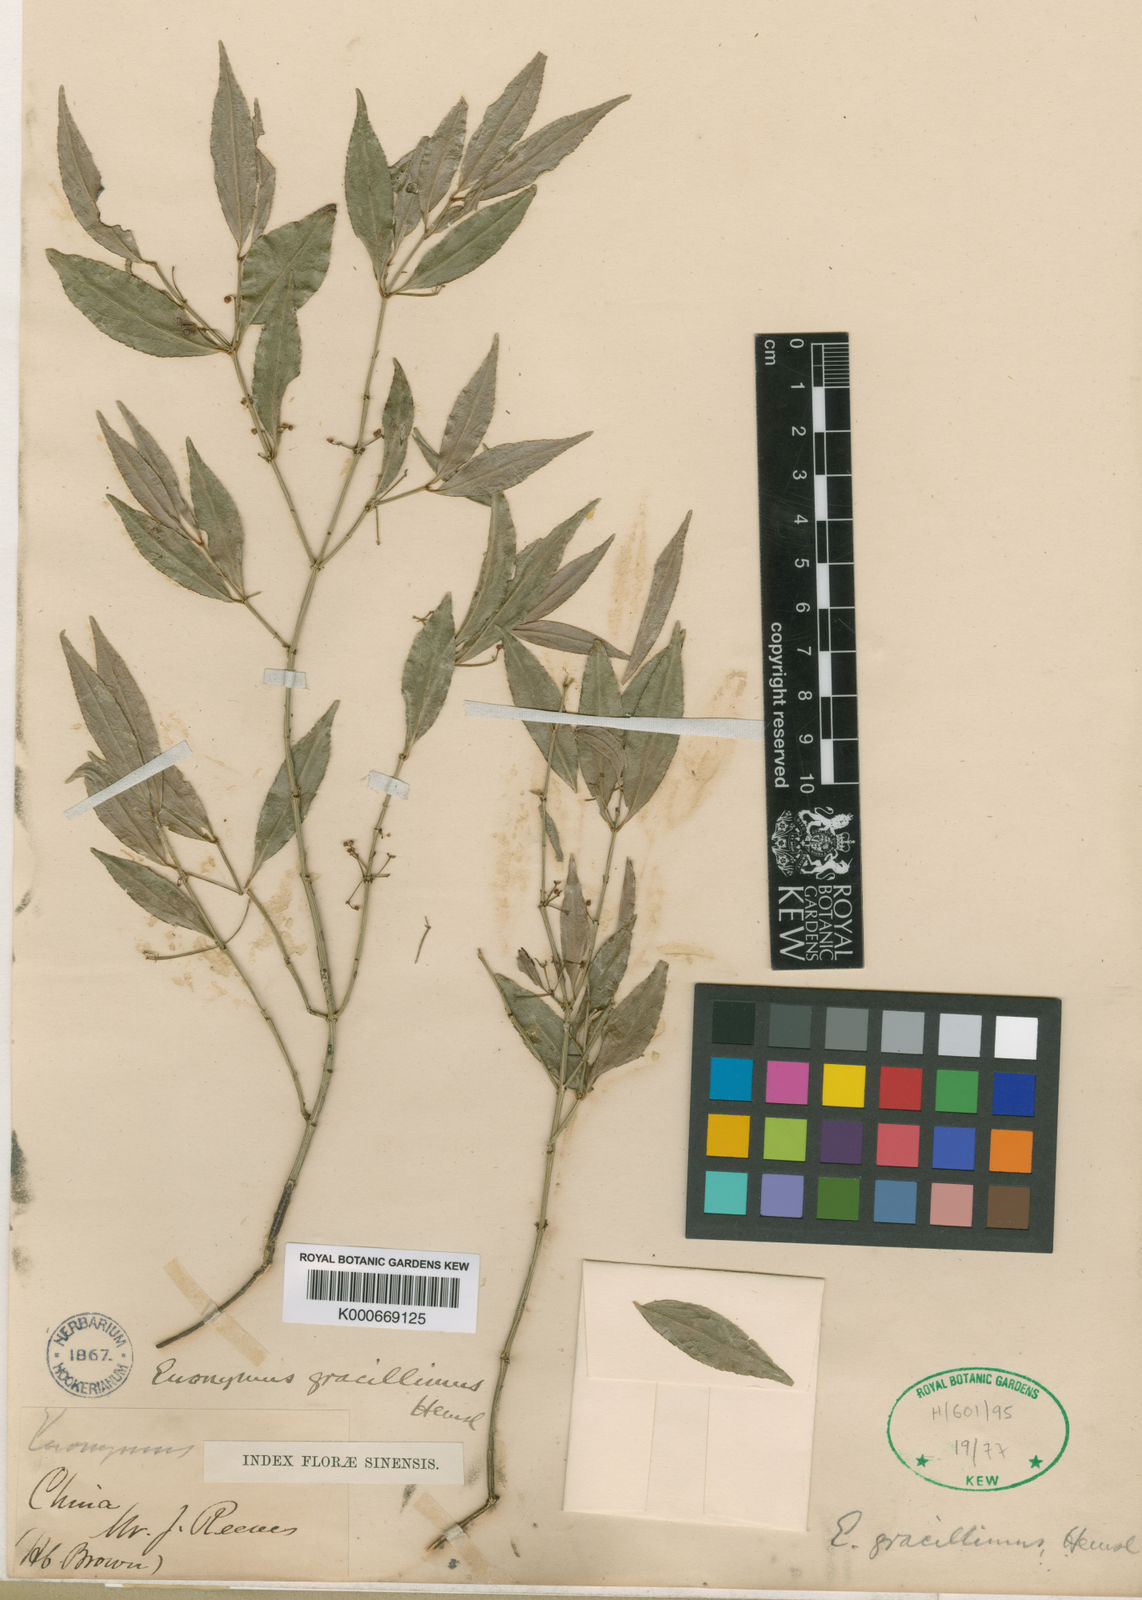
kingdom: Plantae
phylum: Tracheophyta
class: Magnoliopsida
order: Celastrales
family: Celastraceae
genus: Euonymus
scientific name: Euonymus gracillimus
